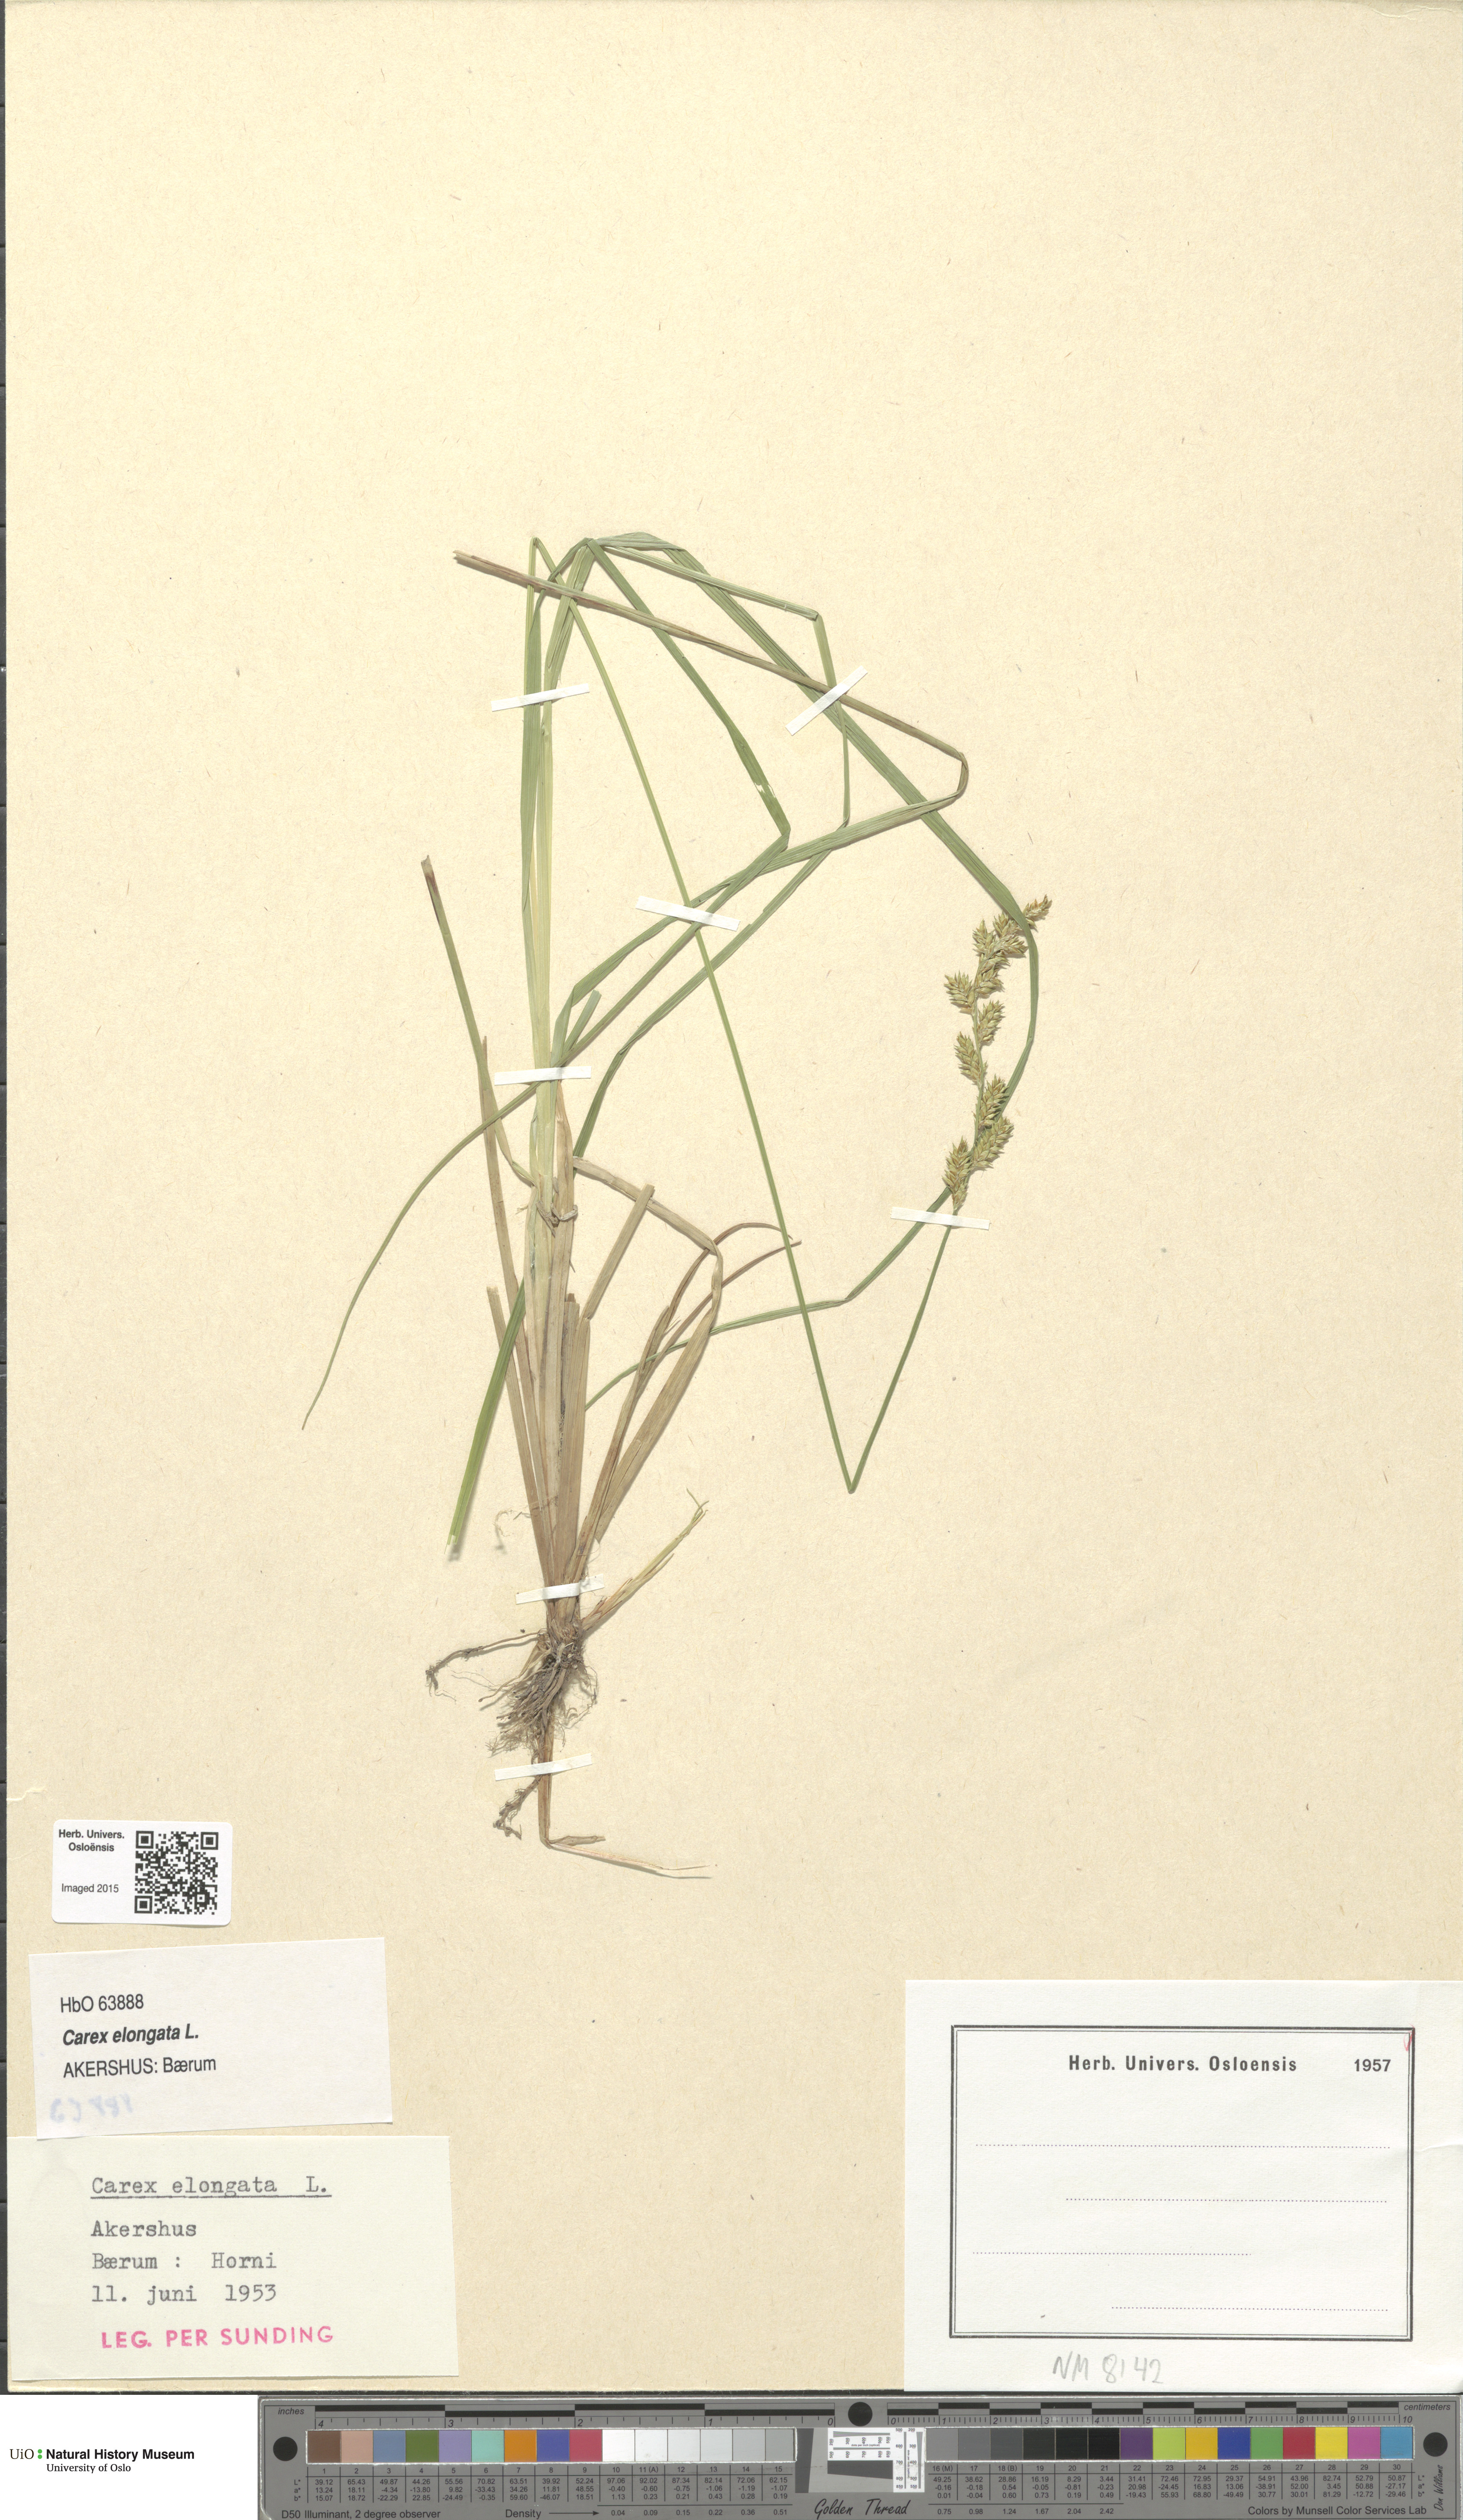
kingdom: Plantae
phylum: Tracheophyta
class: Liliopsida
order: Poales
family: Cyperaceae
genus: Carex
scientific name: Carex elongata
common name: Elongated sedge
